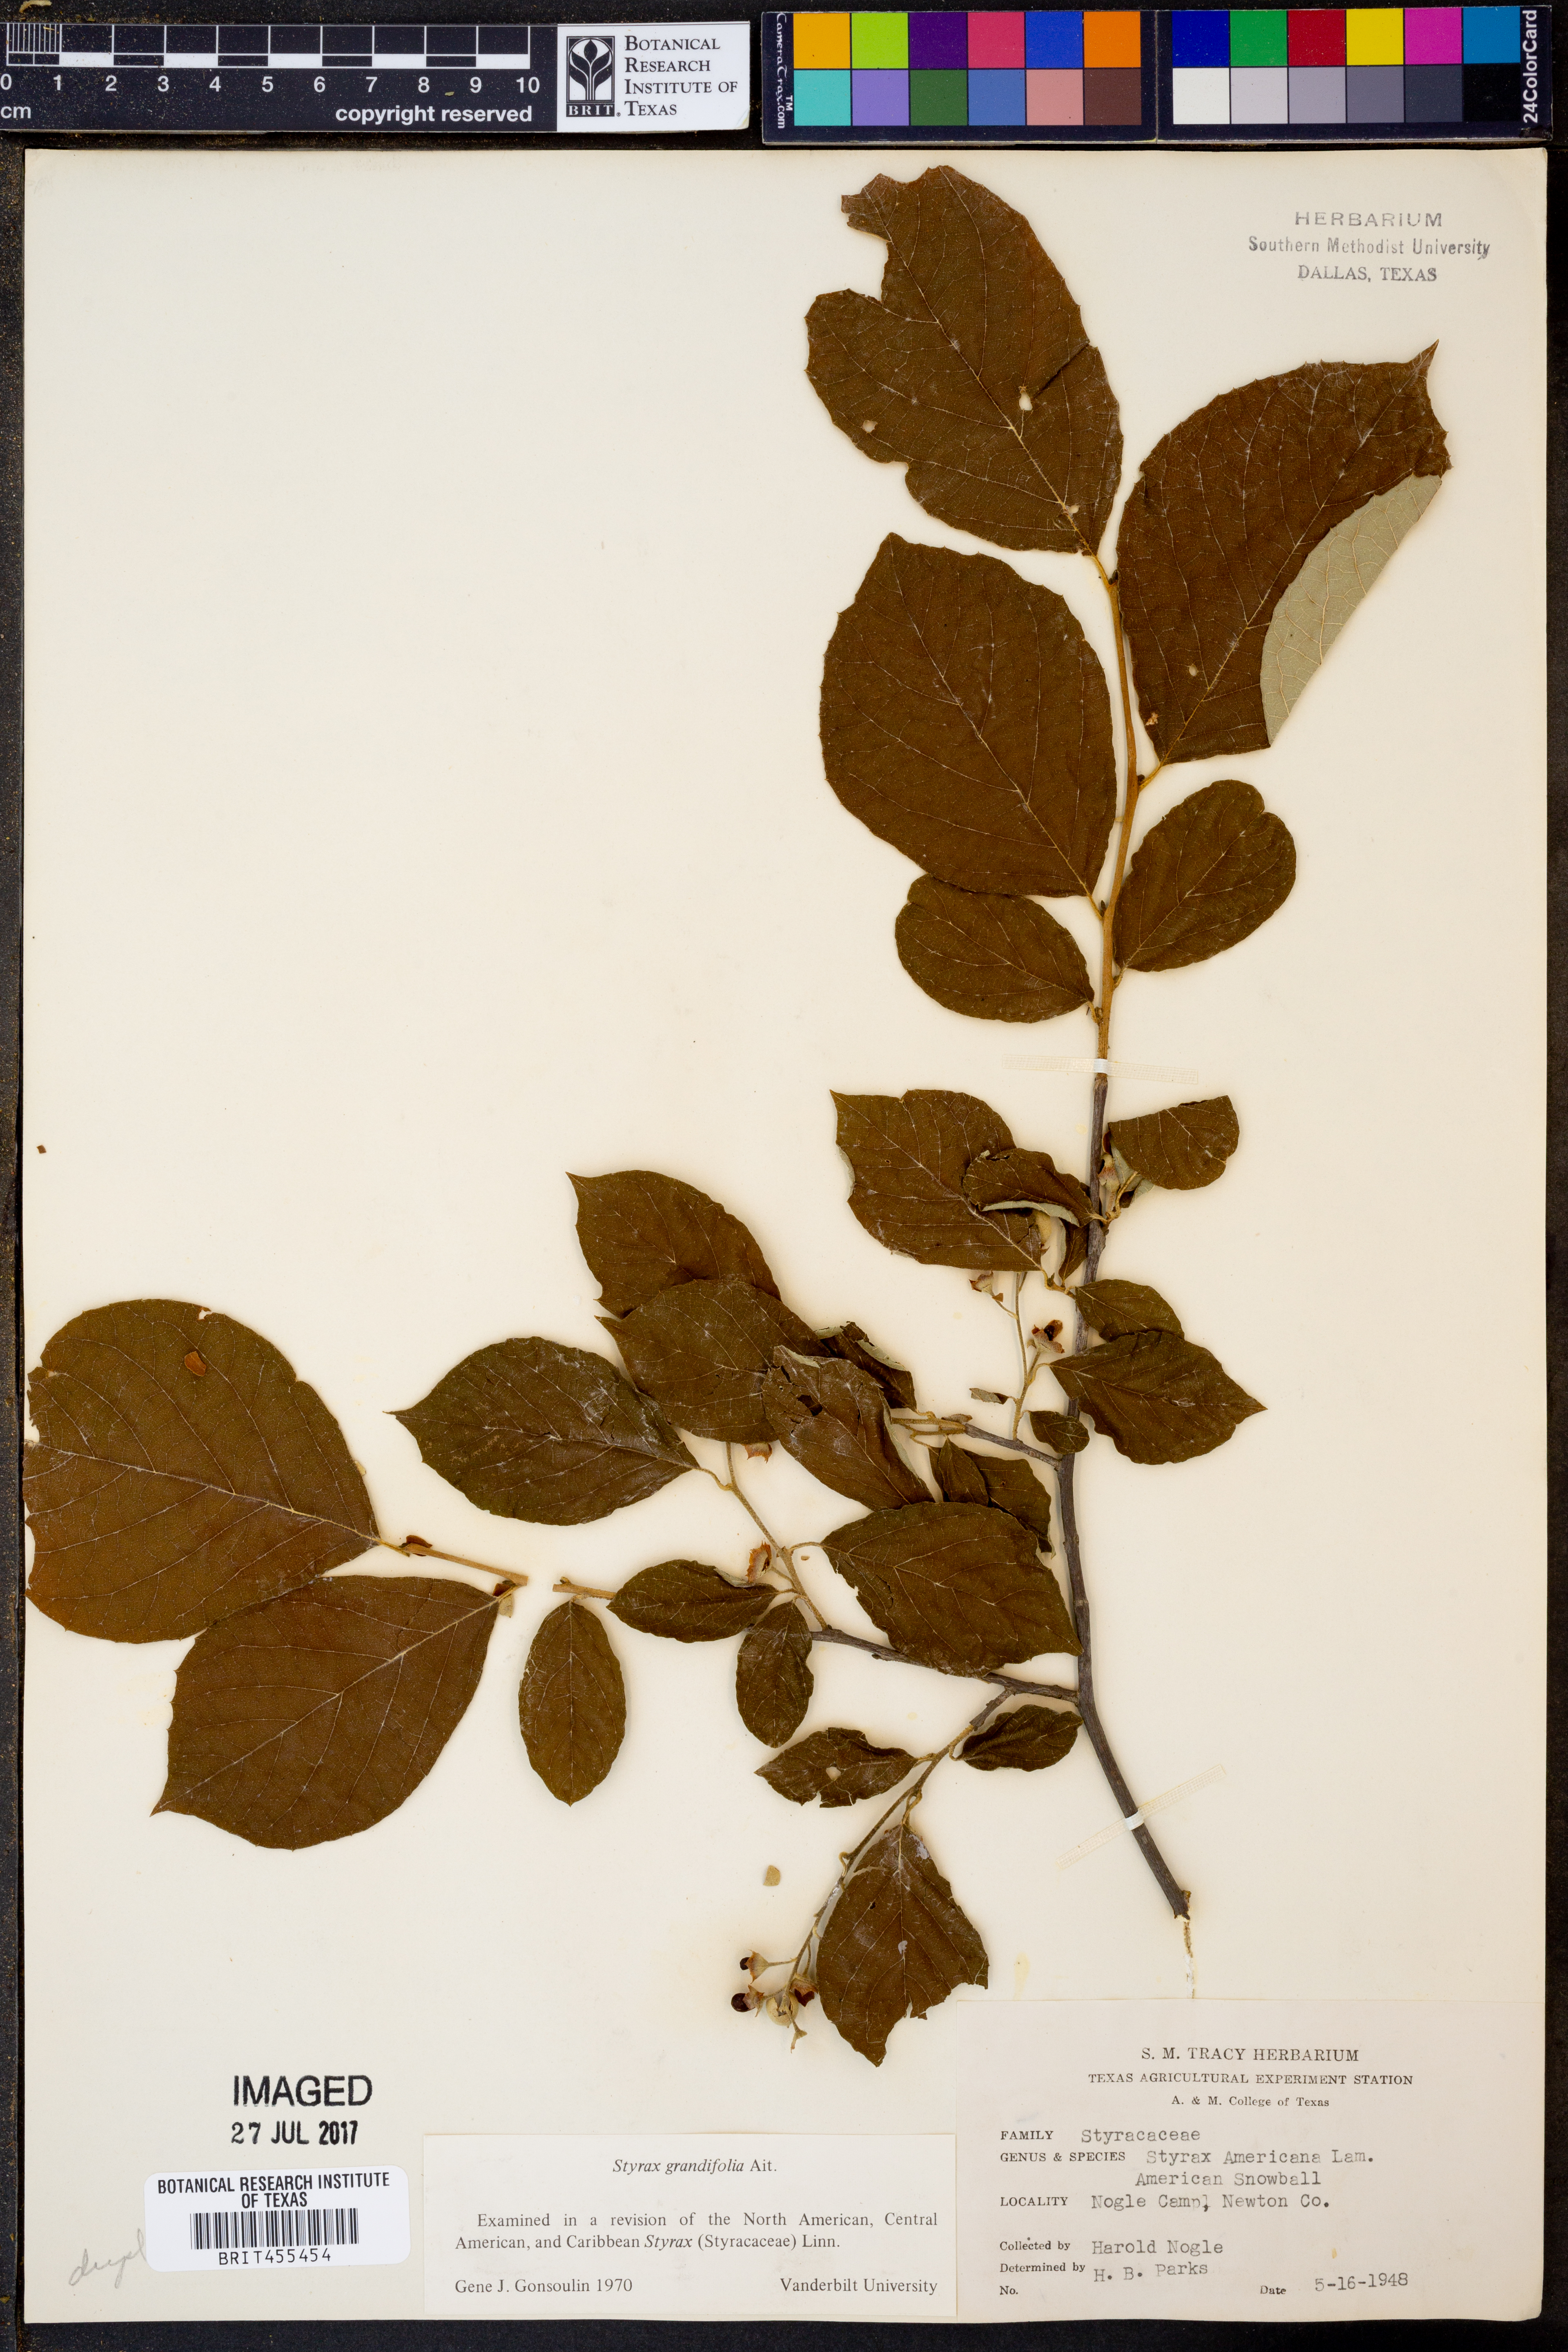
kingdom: Plantae
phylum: Tracheophyta
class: Magnoliopsida
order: Ericales
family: Styracaceae
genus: Styrax
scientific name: Styrax grandifolius
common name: Big-leaf snowbell
